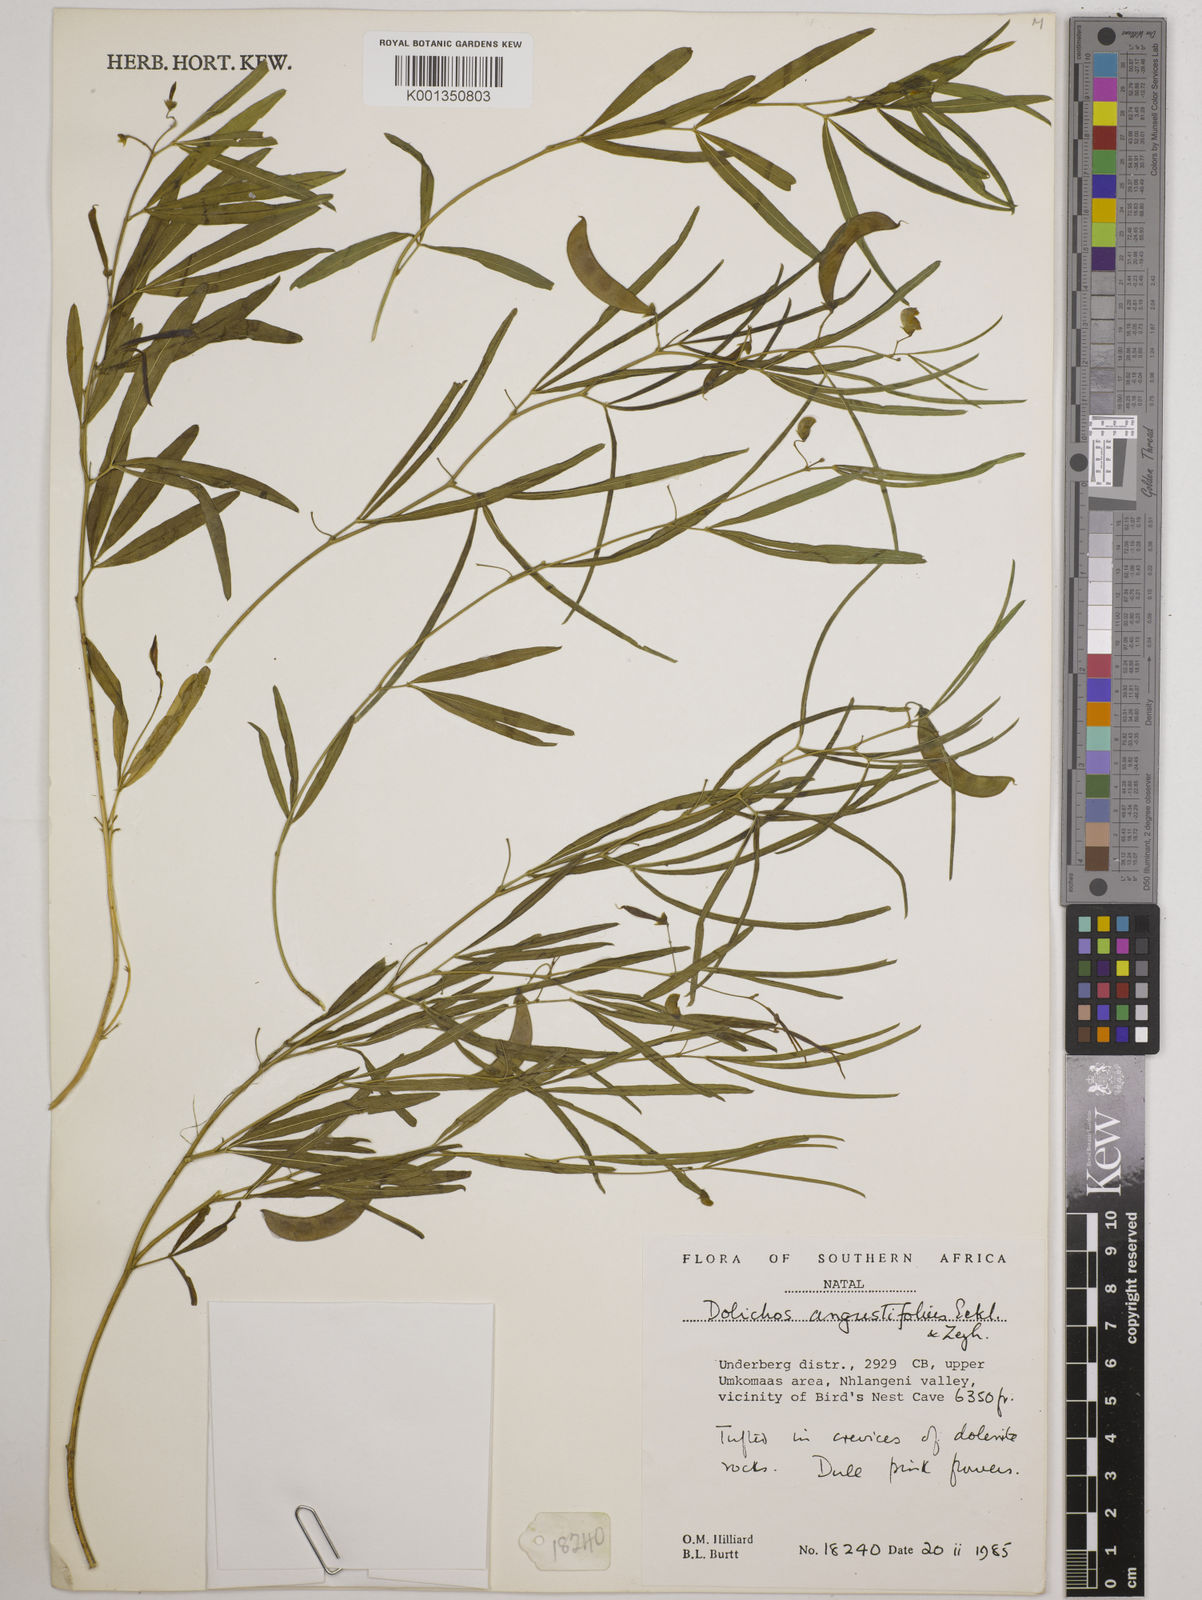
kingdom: Plantae
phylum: Tracheophyta
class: Magnoliopsida
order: Fabales
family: Fabaceae
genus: Dolichos
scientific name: Dolichos
